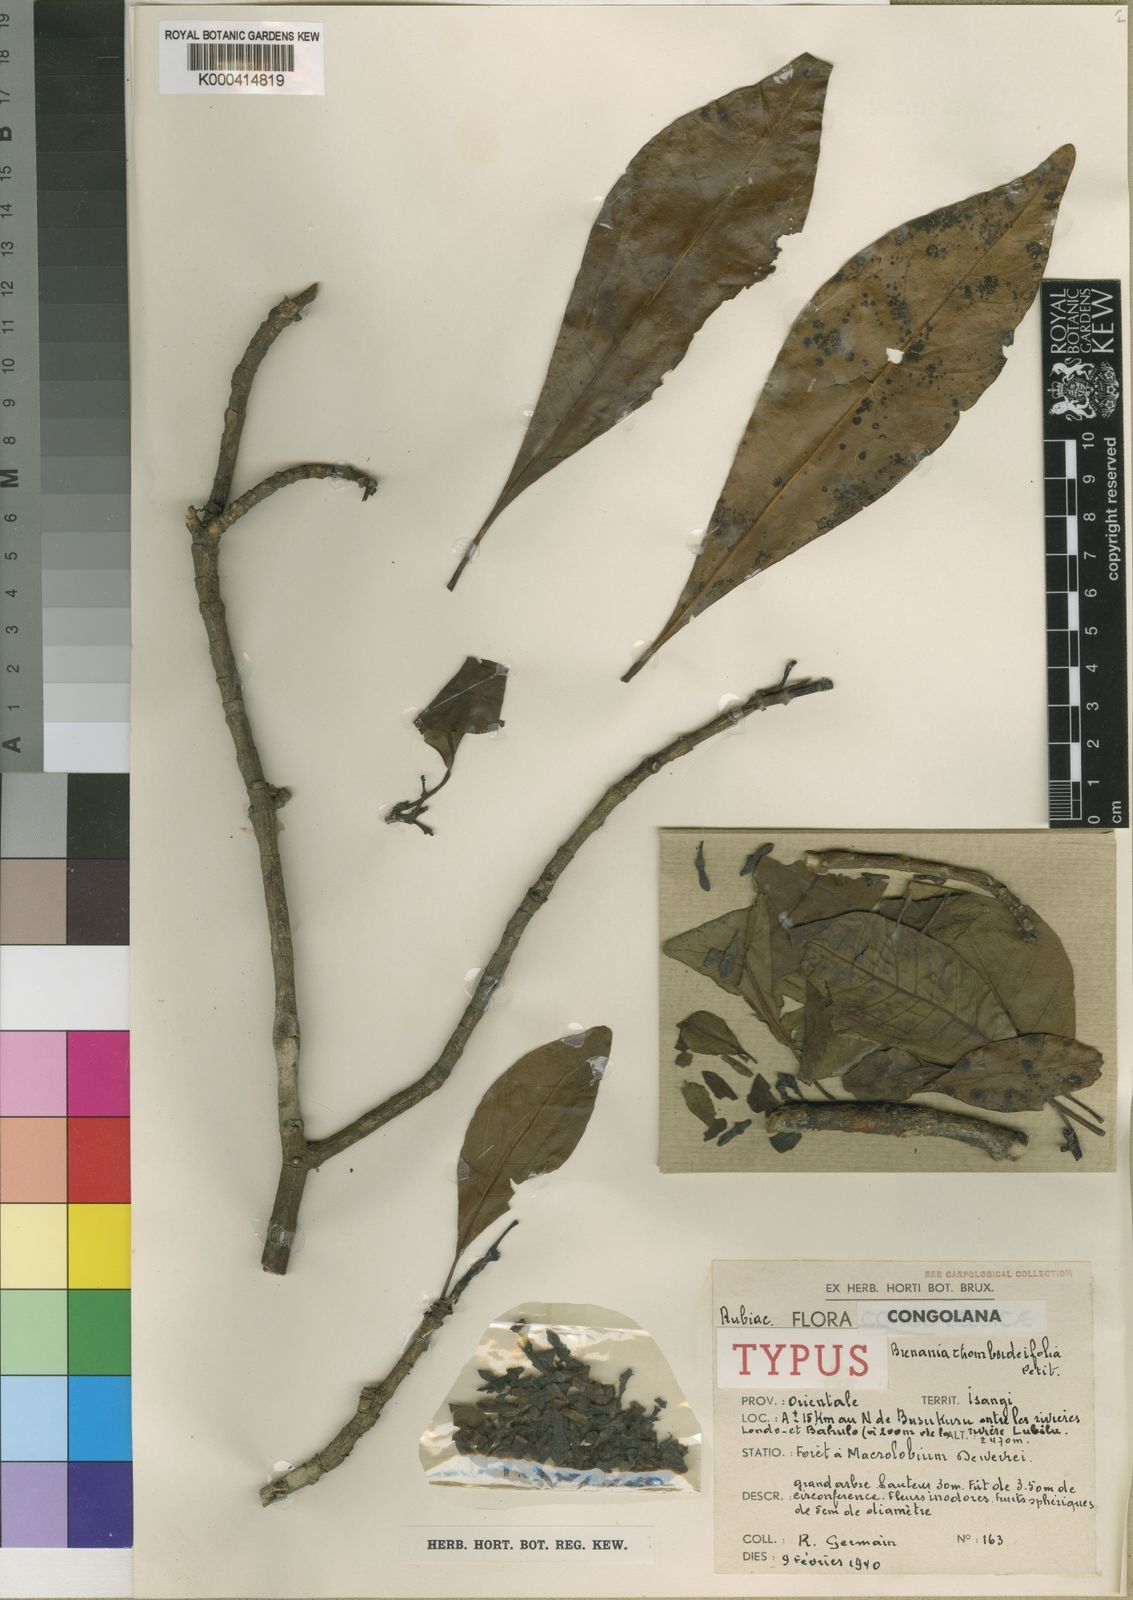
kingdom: Plantae
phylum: Tracheophyta
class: Magnoliopsida
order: Gentianales
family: Rubiaceae
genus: Brenania
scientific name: Brenania rhomboideifolia
